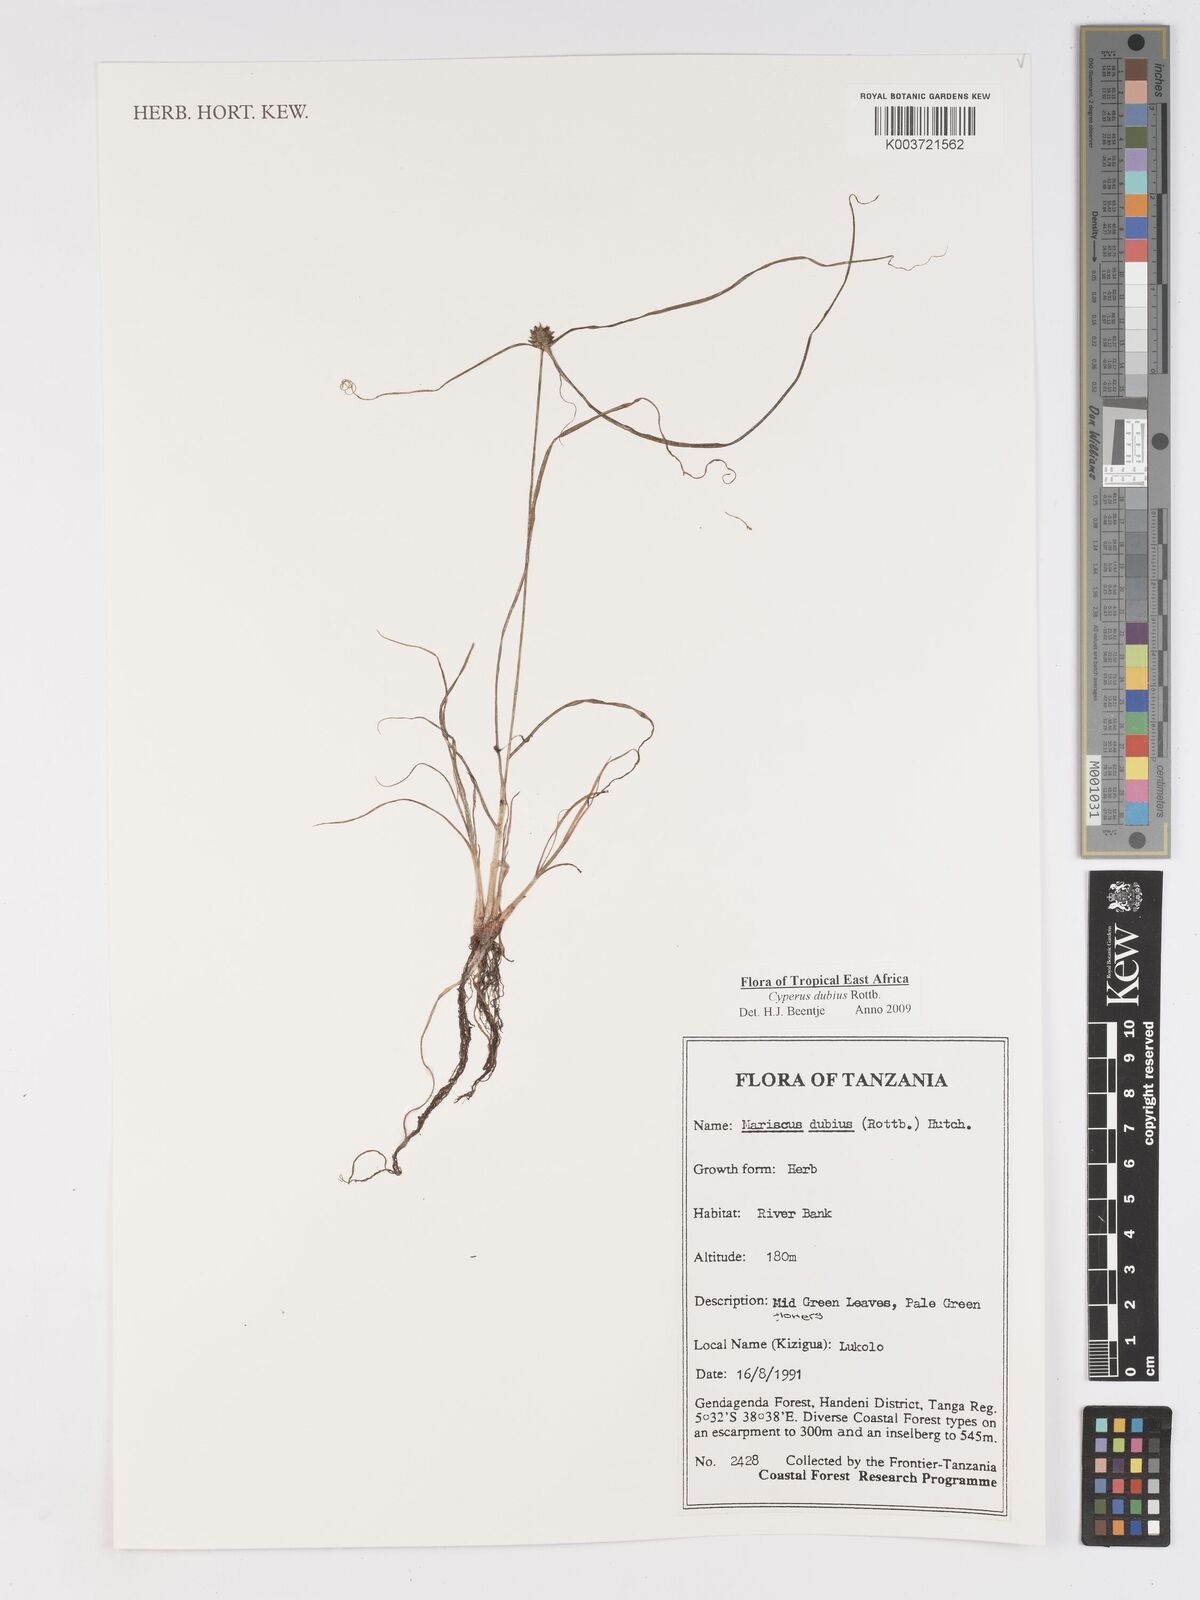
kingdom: Plantae
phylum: Tracheophyta
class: Liliopsida
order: Poales
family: Cyperaceae
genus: Cyperus
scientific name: Cyperus dubius
